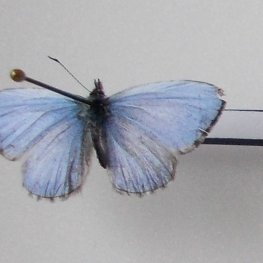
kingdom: Animalia
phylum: Arthropoda
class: Insecta
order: Lepidoptera
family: Lycaenidae
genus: Celastrina
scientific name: Celastrina lucia
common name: Northern Spring Azure
